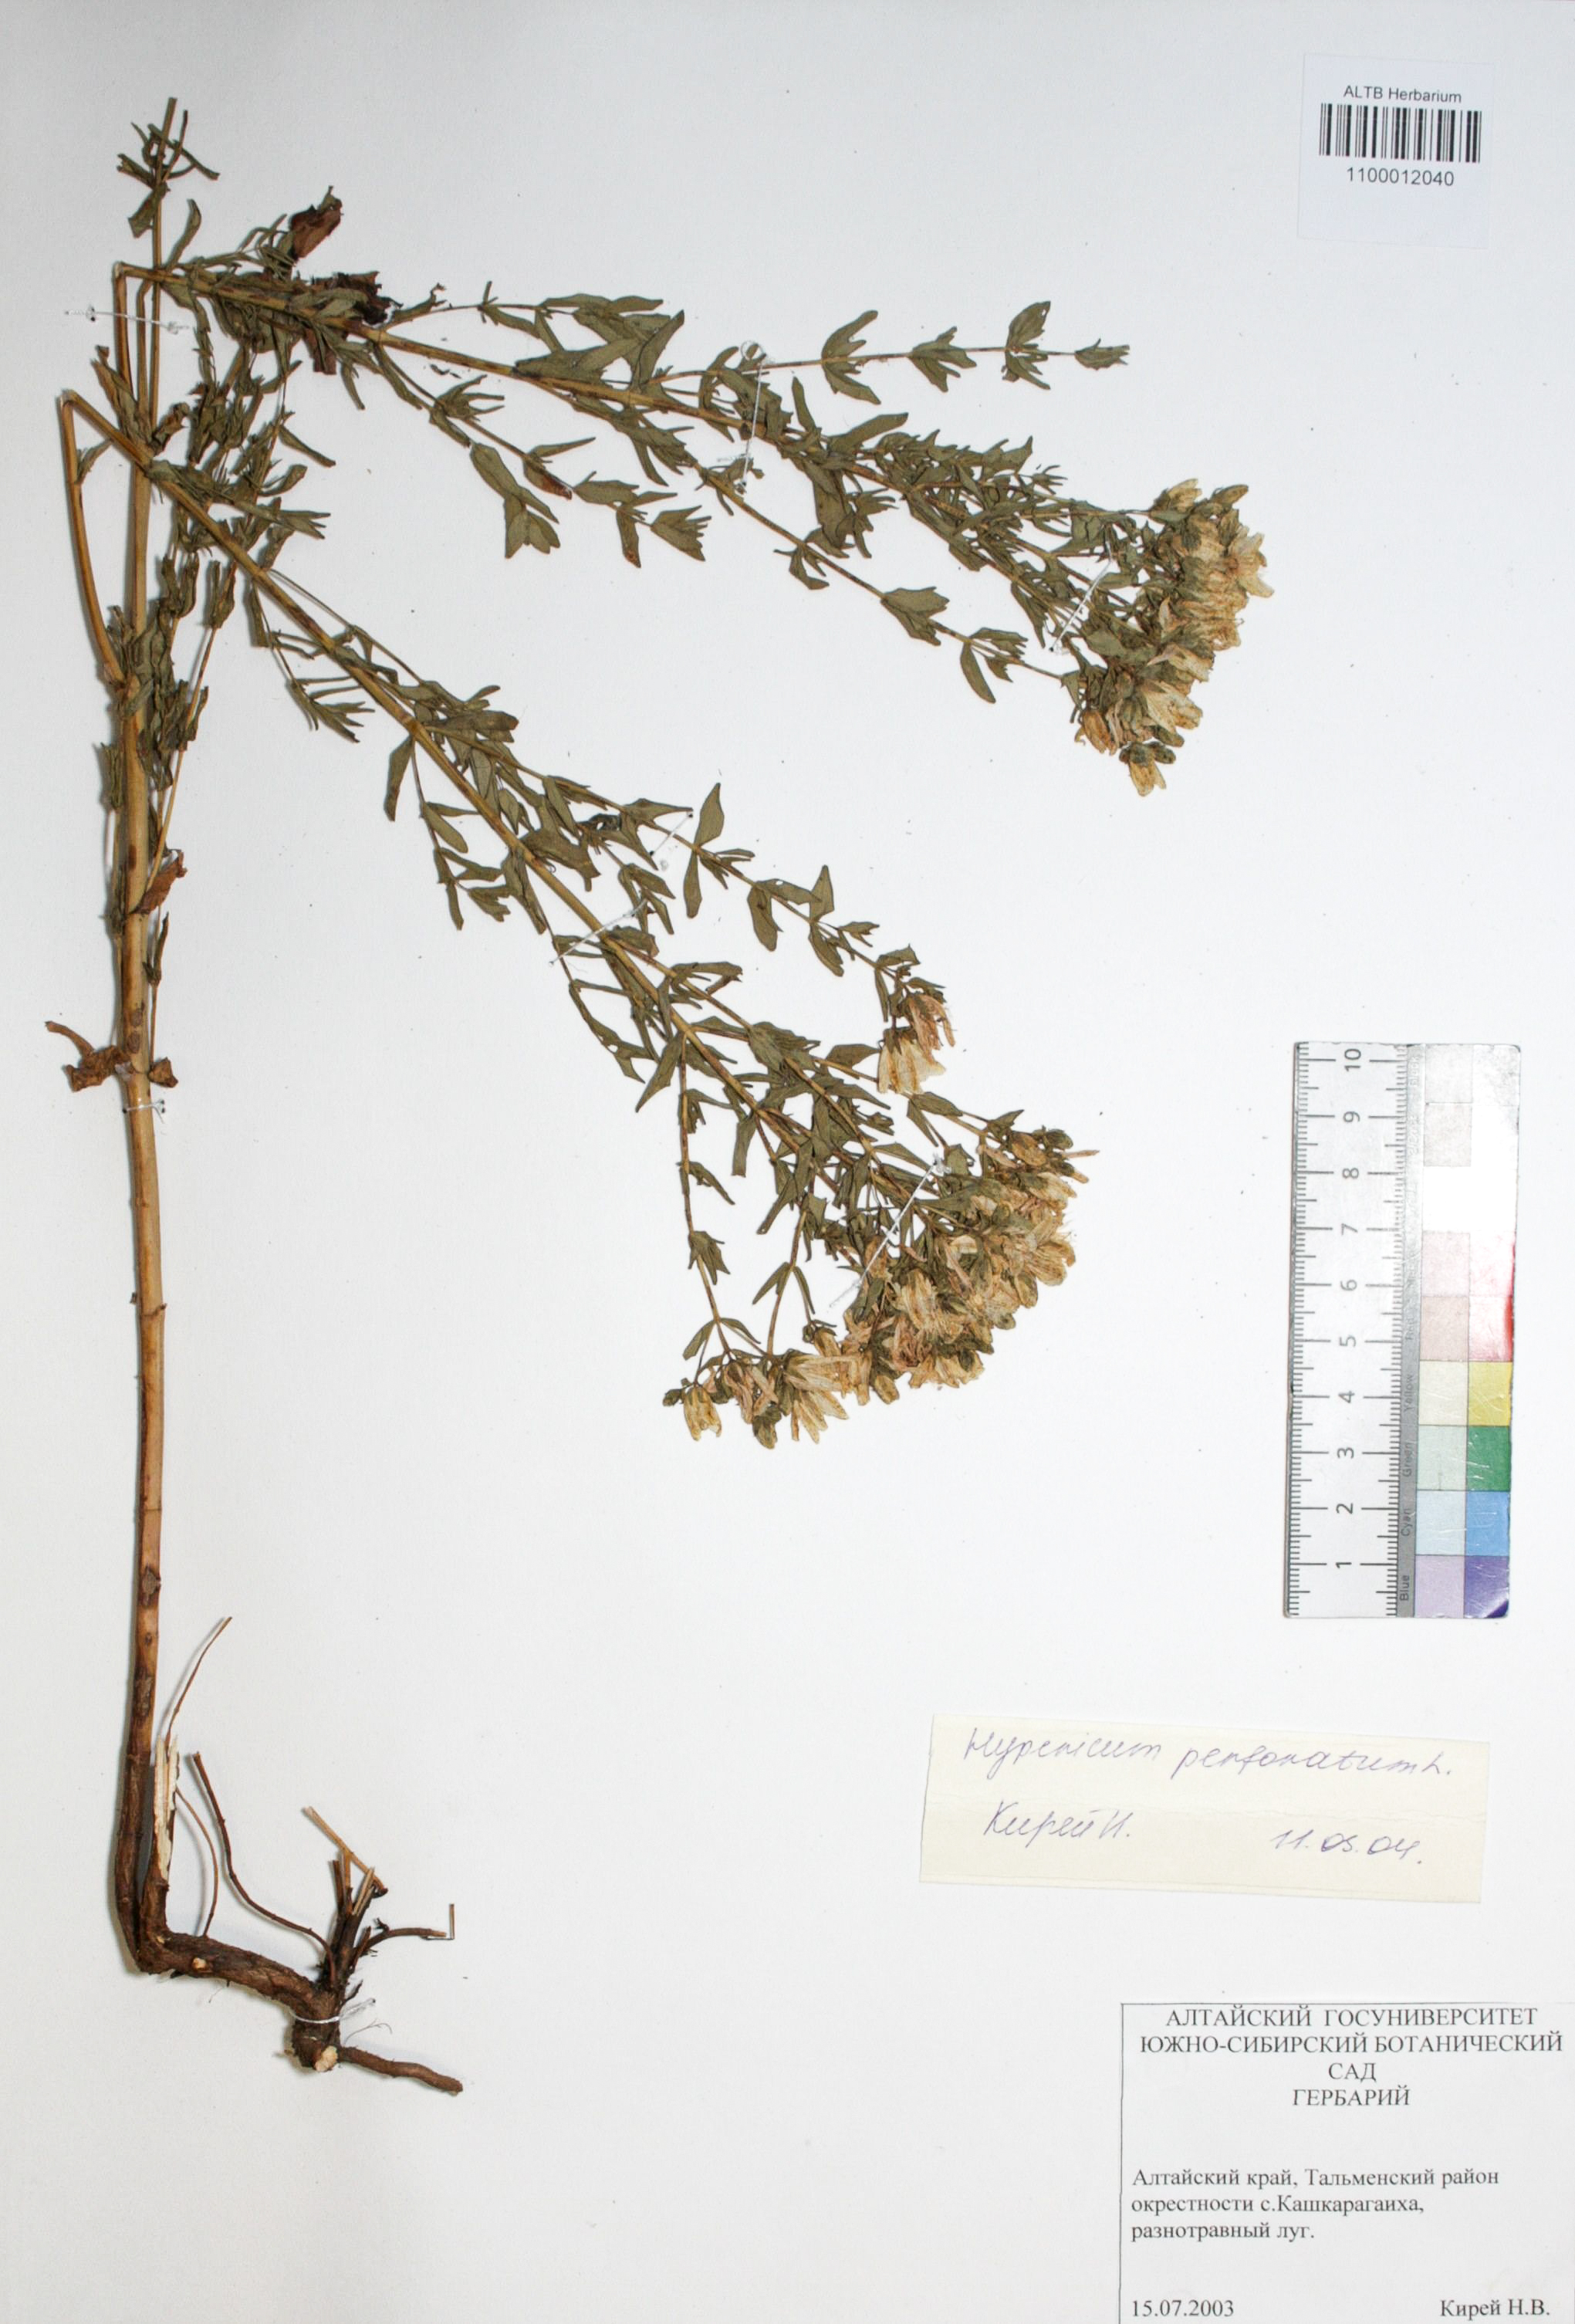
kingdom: Plantae
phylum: Tracheophyta
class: Magnoliopsida
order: Malpighiales
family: Hypericaceae
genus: Hypericum
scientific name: Hypericum perforatum
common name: Common st. johnswort
